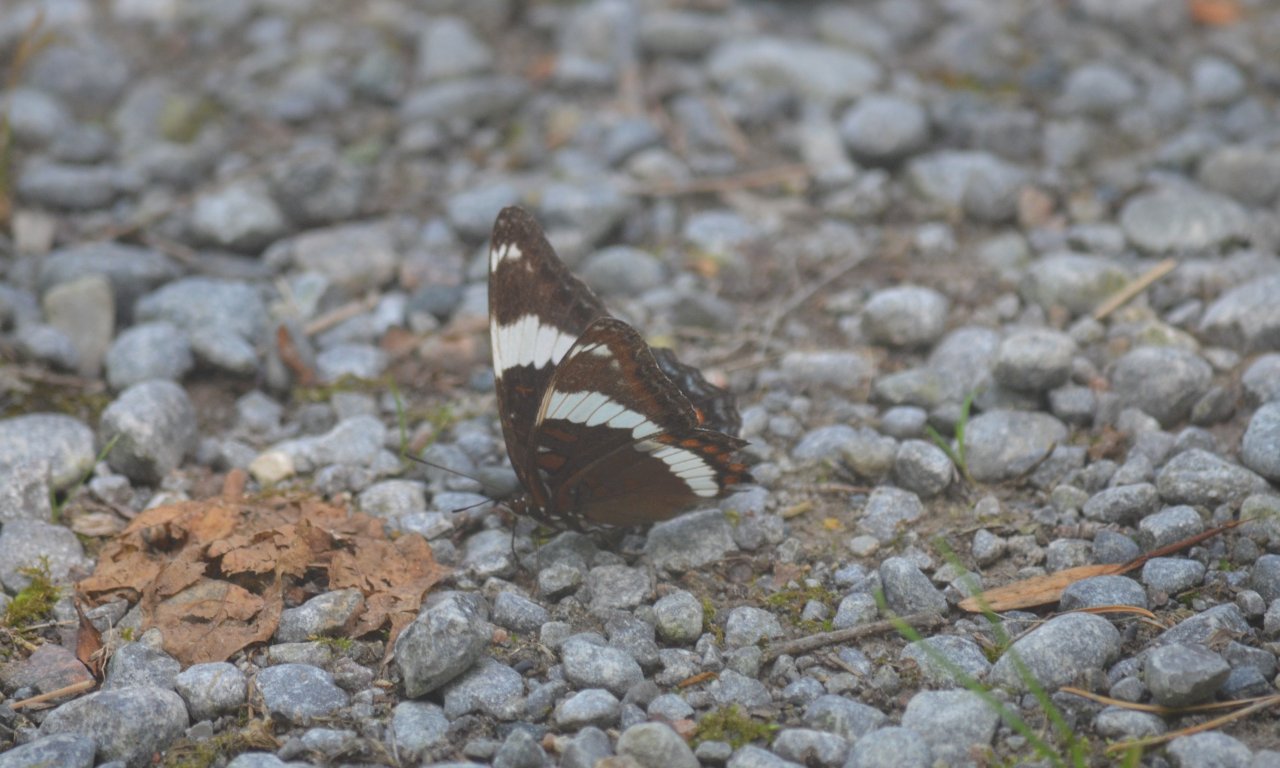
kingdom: Animalia
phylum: Arthropoda
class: Insecta
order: Lepidoptera
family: Nymphalidae
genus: Limenitis
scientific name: Limenitis arthemis
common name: Red-spotted Admiral
